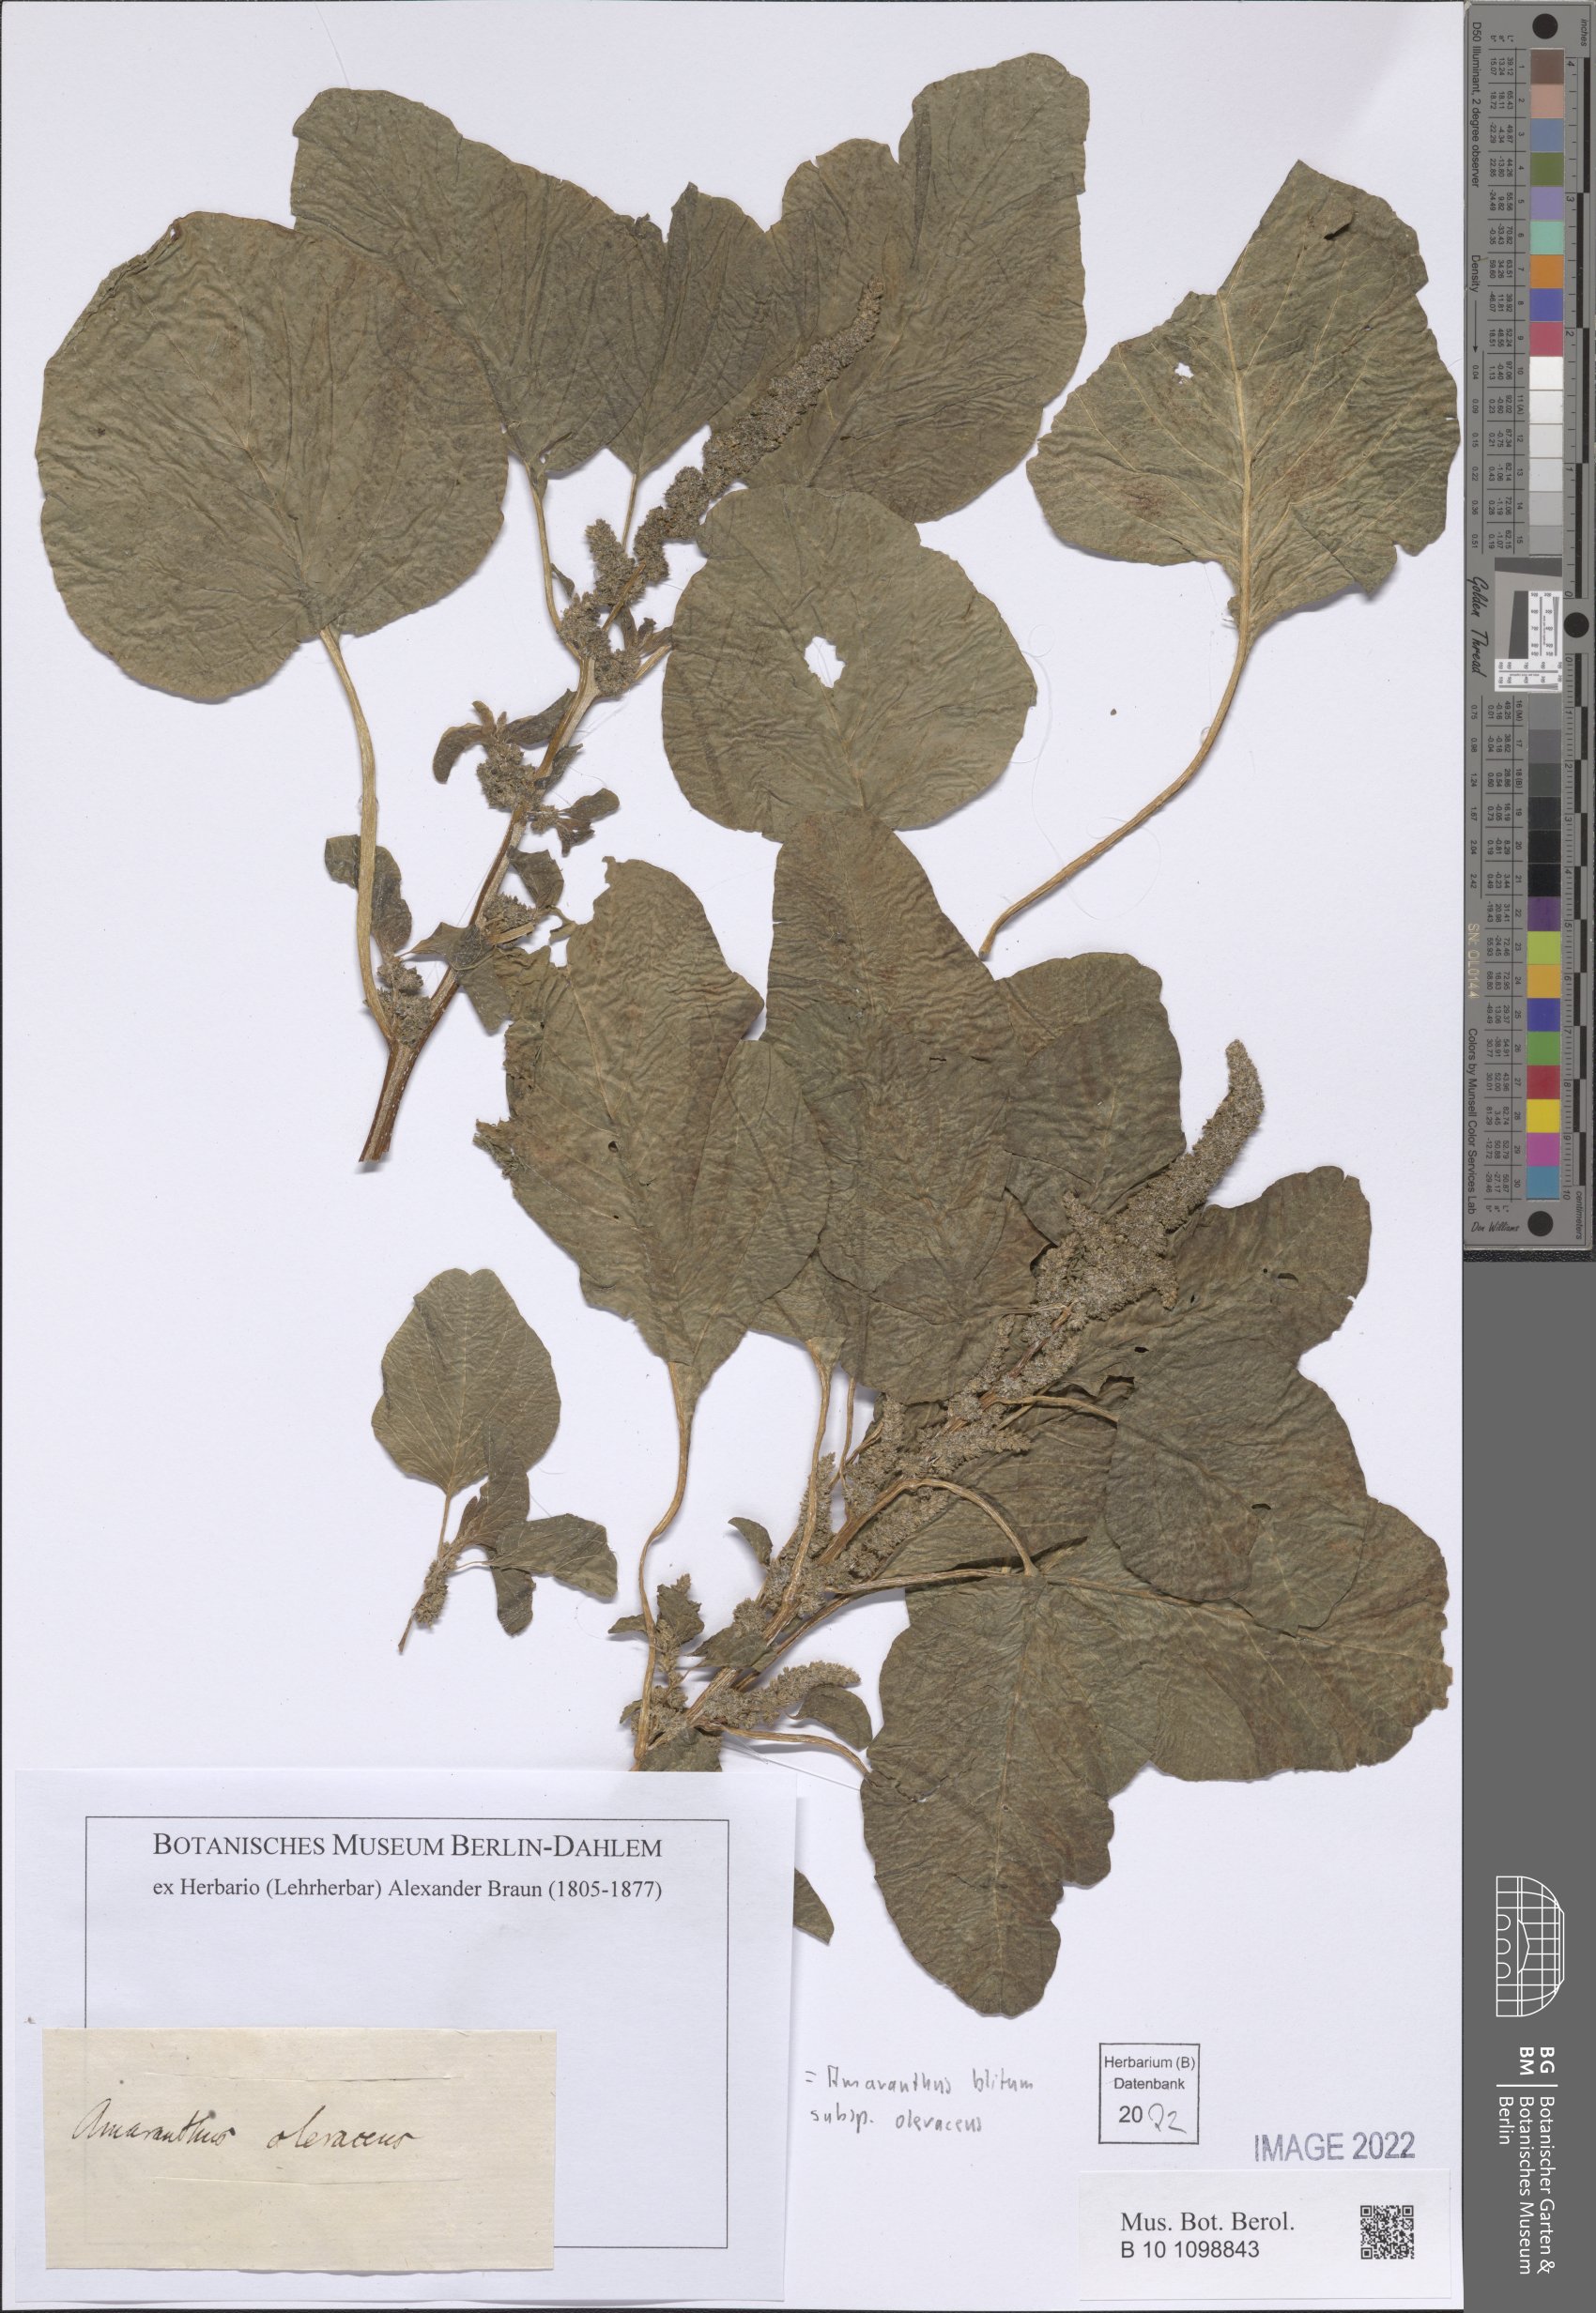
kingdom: Plantae
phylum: Tracheophyta
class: Magnoliopsida
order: Caryophyllales
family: Amaranthaceae
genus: Amaranthus
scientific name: Amaranthus blitum
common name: Purple amaranth
